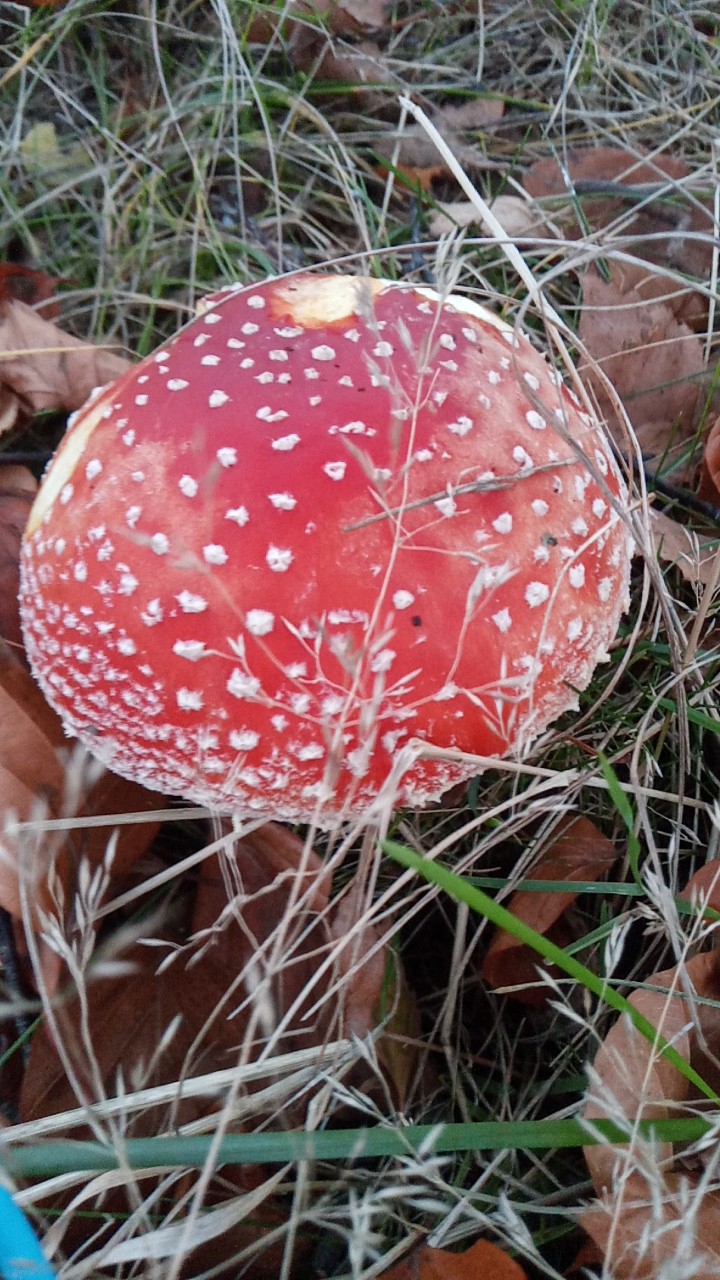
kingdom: Fungi
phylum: Basidiomycota
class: Agaricomycetes
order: Agaricales
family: Amanitaceae
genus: Amanita
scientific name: Amanita muscaria
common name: rød fluesvamp
